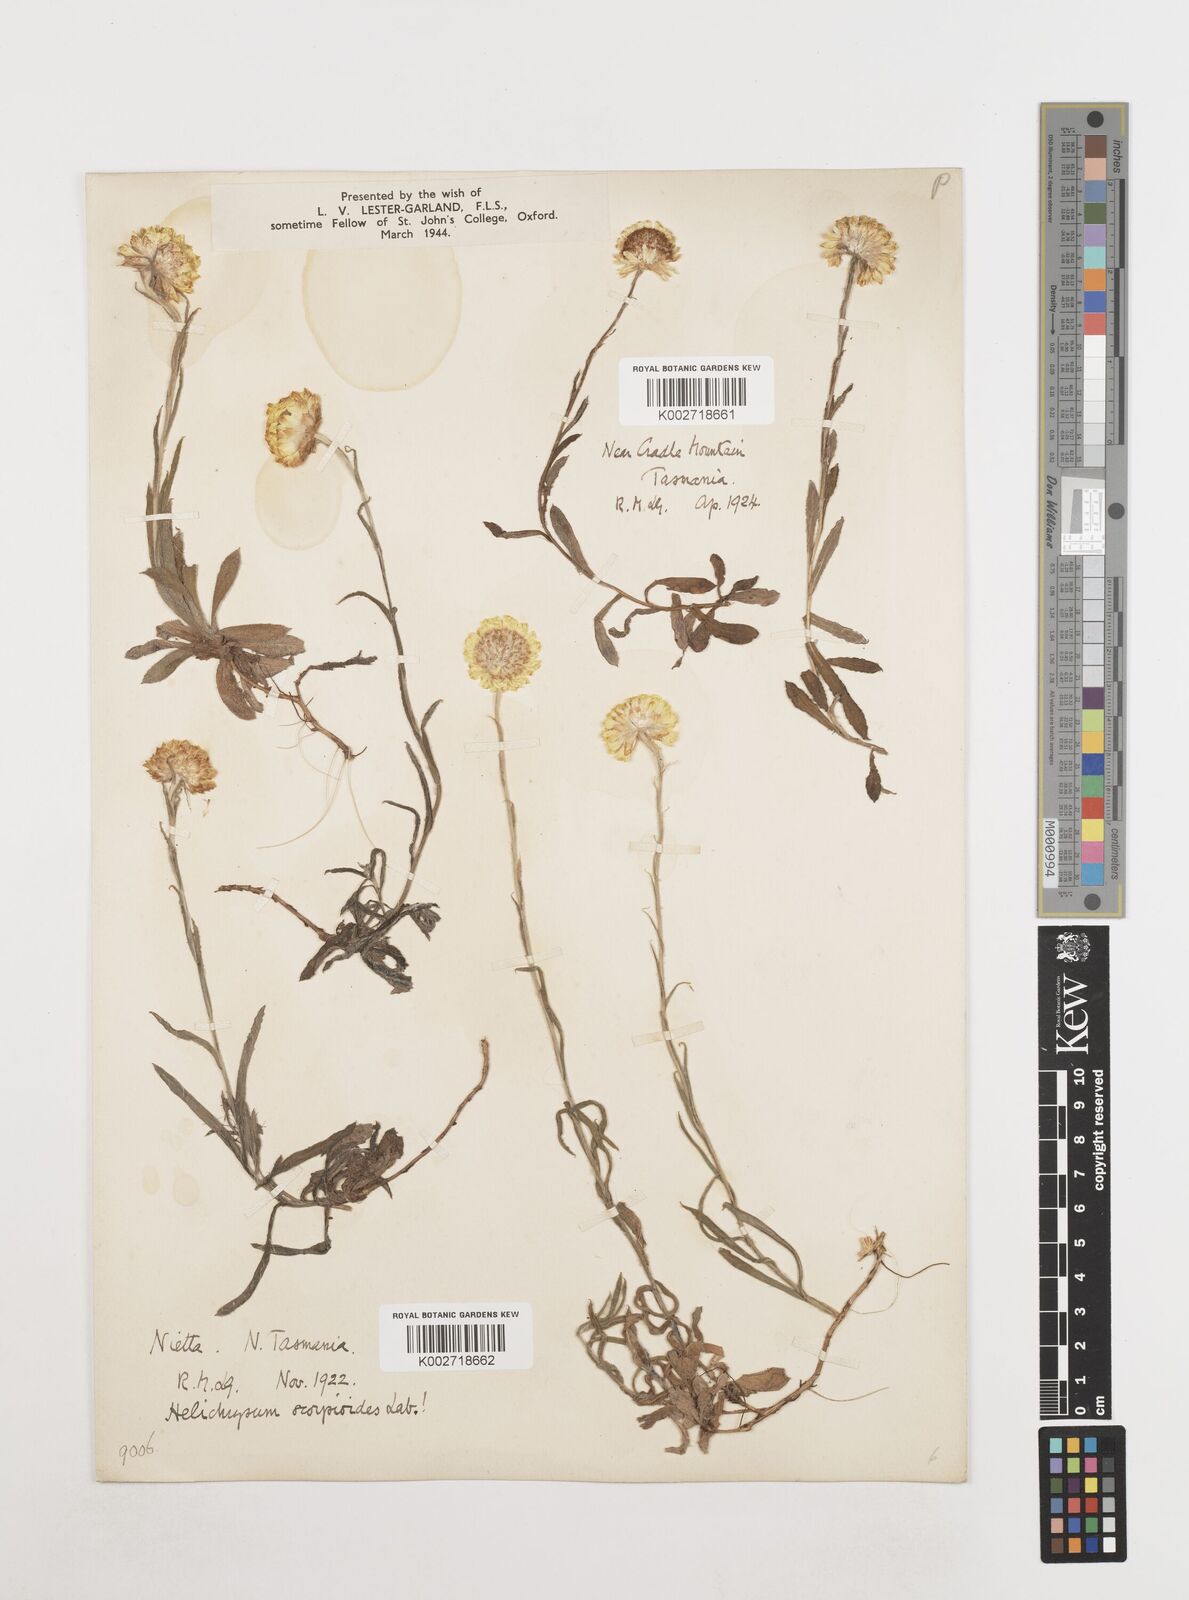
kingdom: Plantae
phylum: Tracheophyta
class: Magnoliopsida
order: Asterales
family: Asteraceae
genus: Coronidium
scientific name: Coronidium scorpioides
